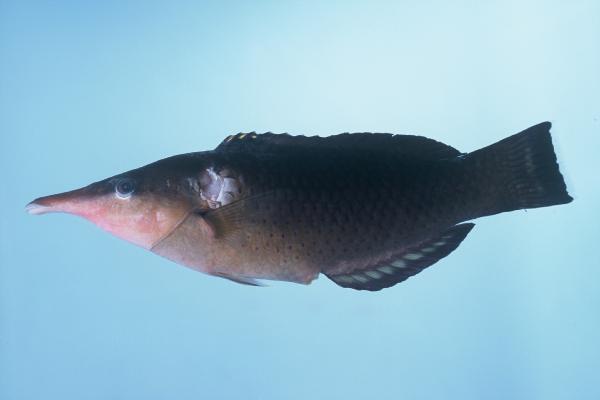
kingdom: Animalia
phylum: Chordata
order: Perciformes
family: Labridae
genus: Gomphosus
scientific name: Gomphosus caeruleus
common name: Bird wrasse
